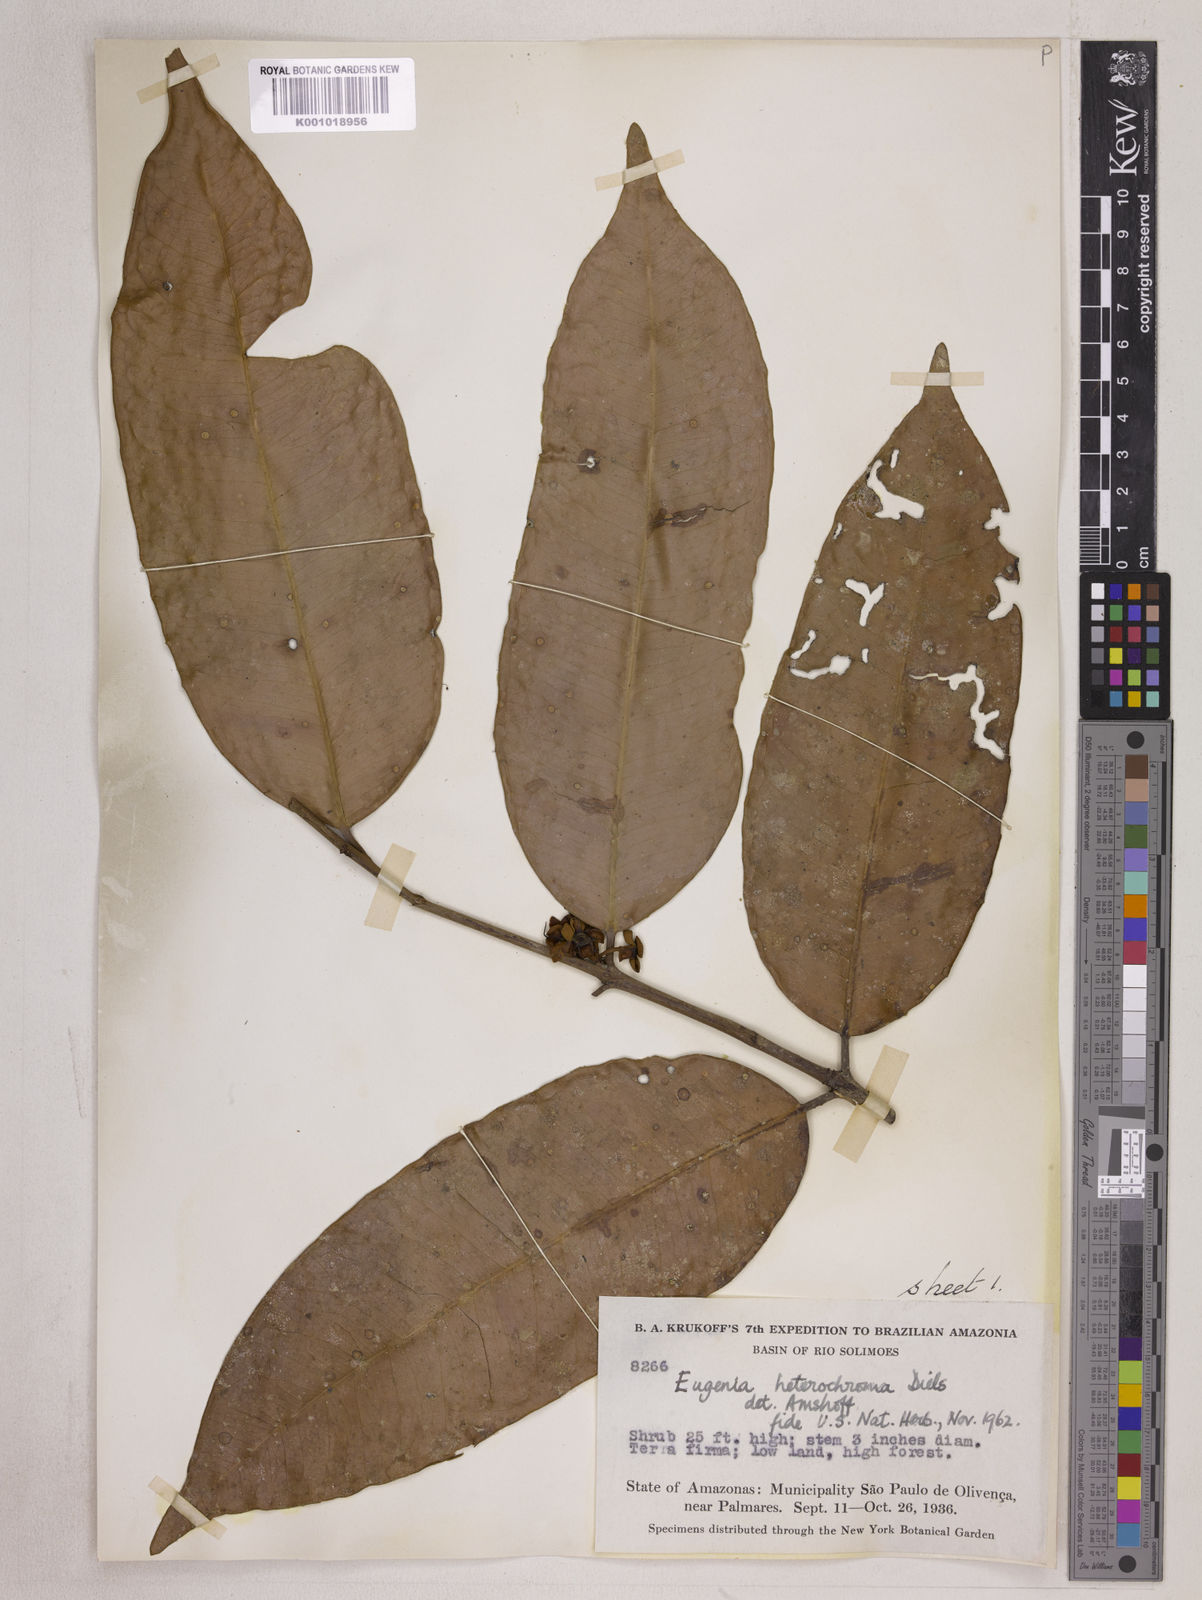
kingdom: Plantae
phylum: Tracheophyta
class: Magnoliopsida
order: Myrtales
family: Myrtaceae
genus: Eugenia
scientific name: Eugenia heterochroma
